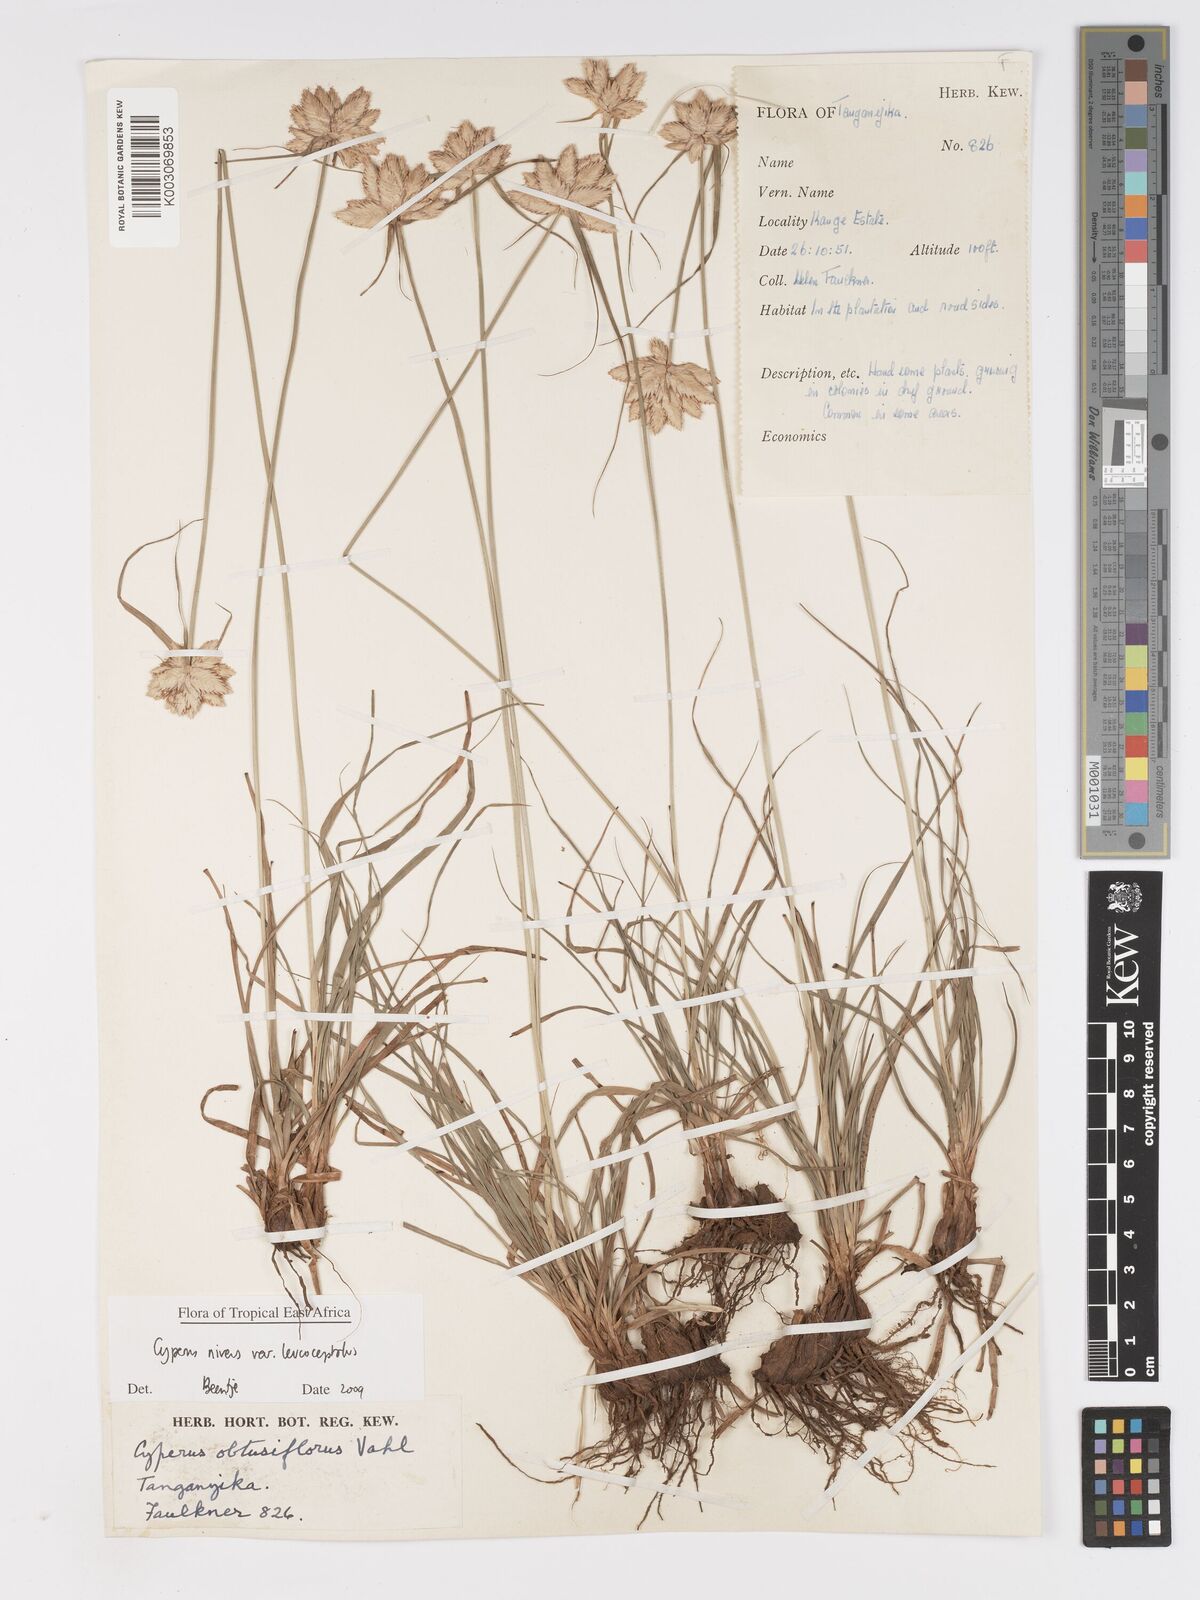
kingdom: Plantae
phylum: Tracheophyta
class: Liliopsida
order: Poales
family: Cyperaceae
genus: Cyperus
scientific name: Cyperus niveus
